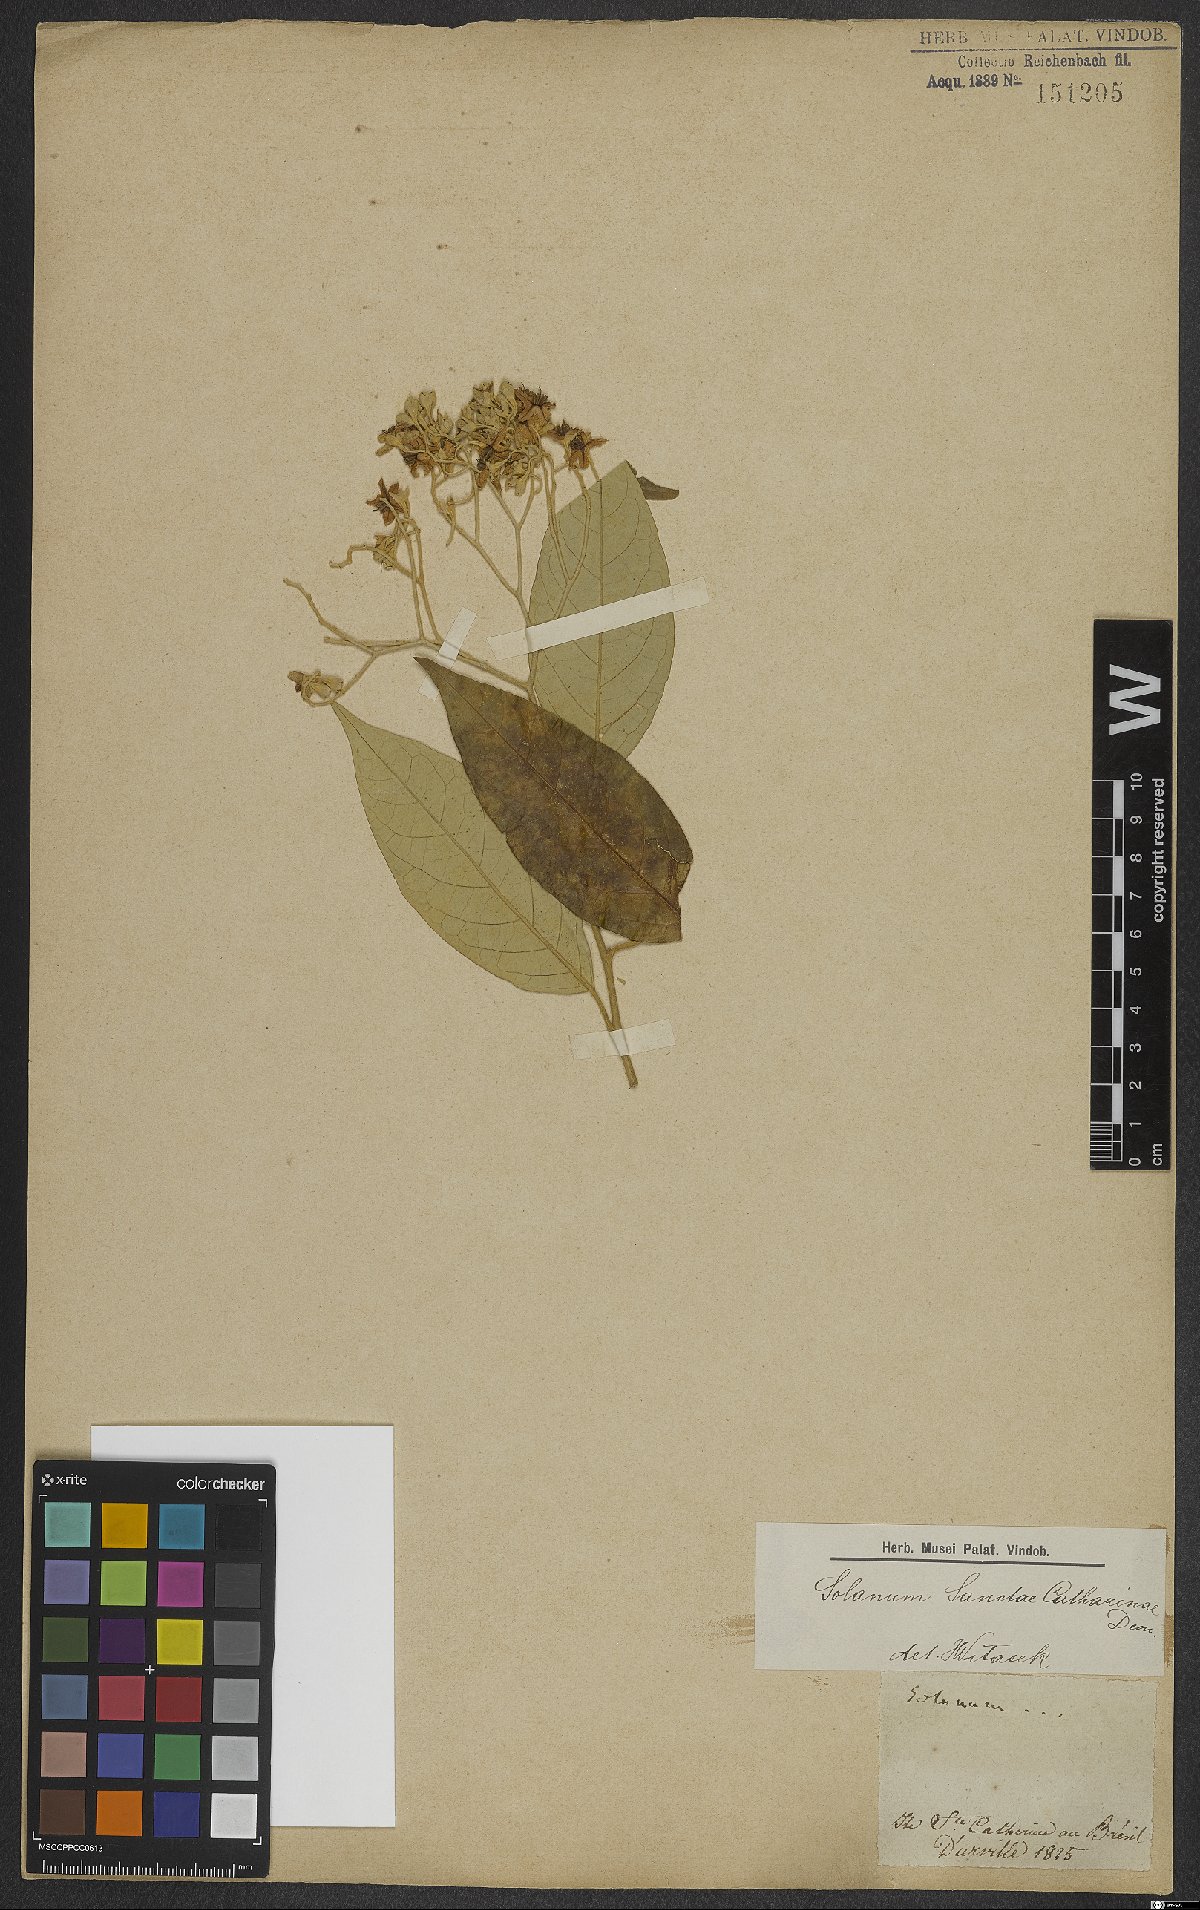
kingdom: Plantae
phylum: Tracheophyta
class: Magnoliopsida
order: Solanales
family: Solanaceae
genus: Solanum
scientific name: Solanum sanctae-catharinae
